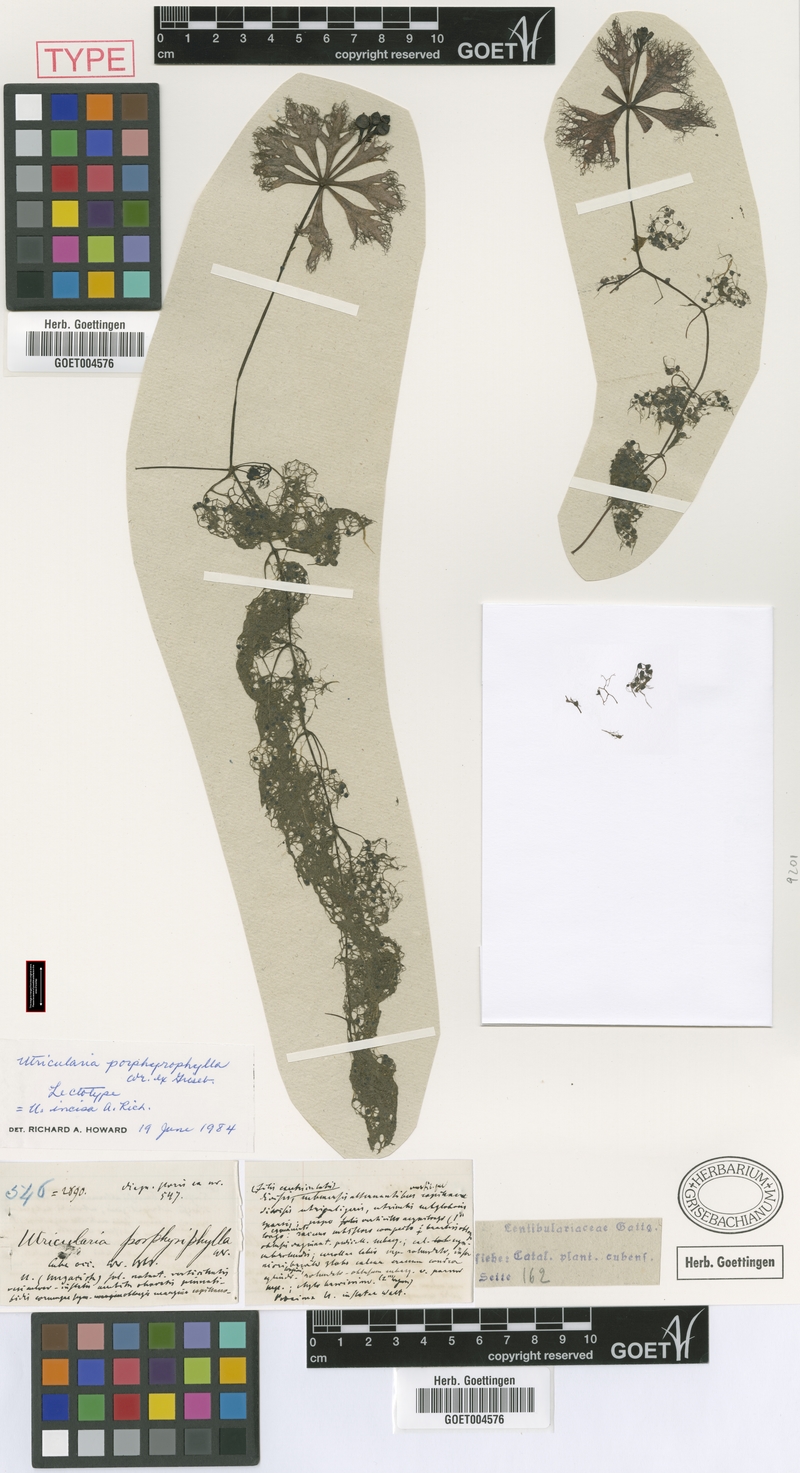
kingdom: Plantae
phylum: Tracheophyta
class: Magnoliopsida
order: Lamiales
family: Lentibulariaceae
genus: Utricularia
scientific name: Utricularia incisa
